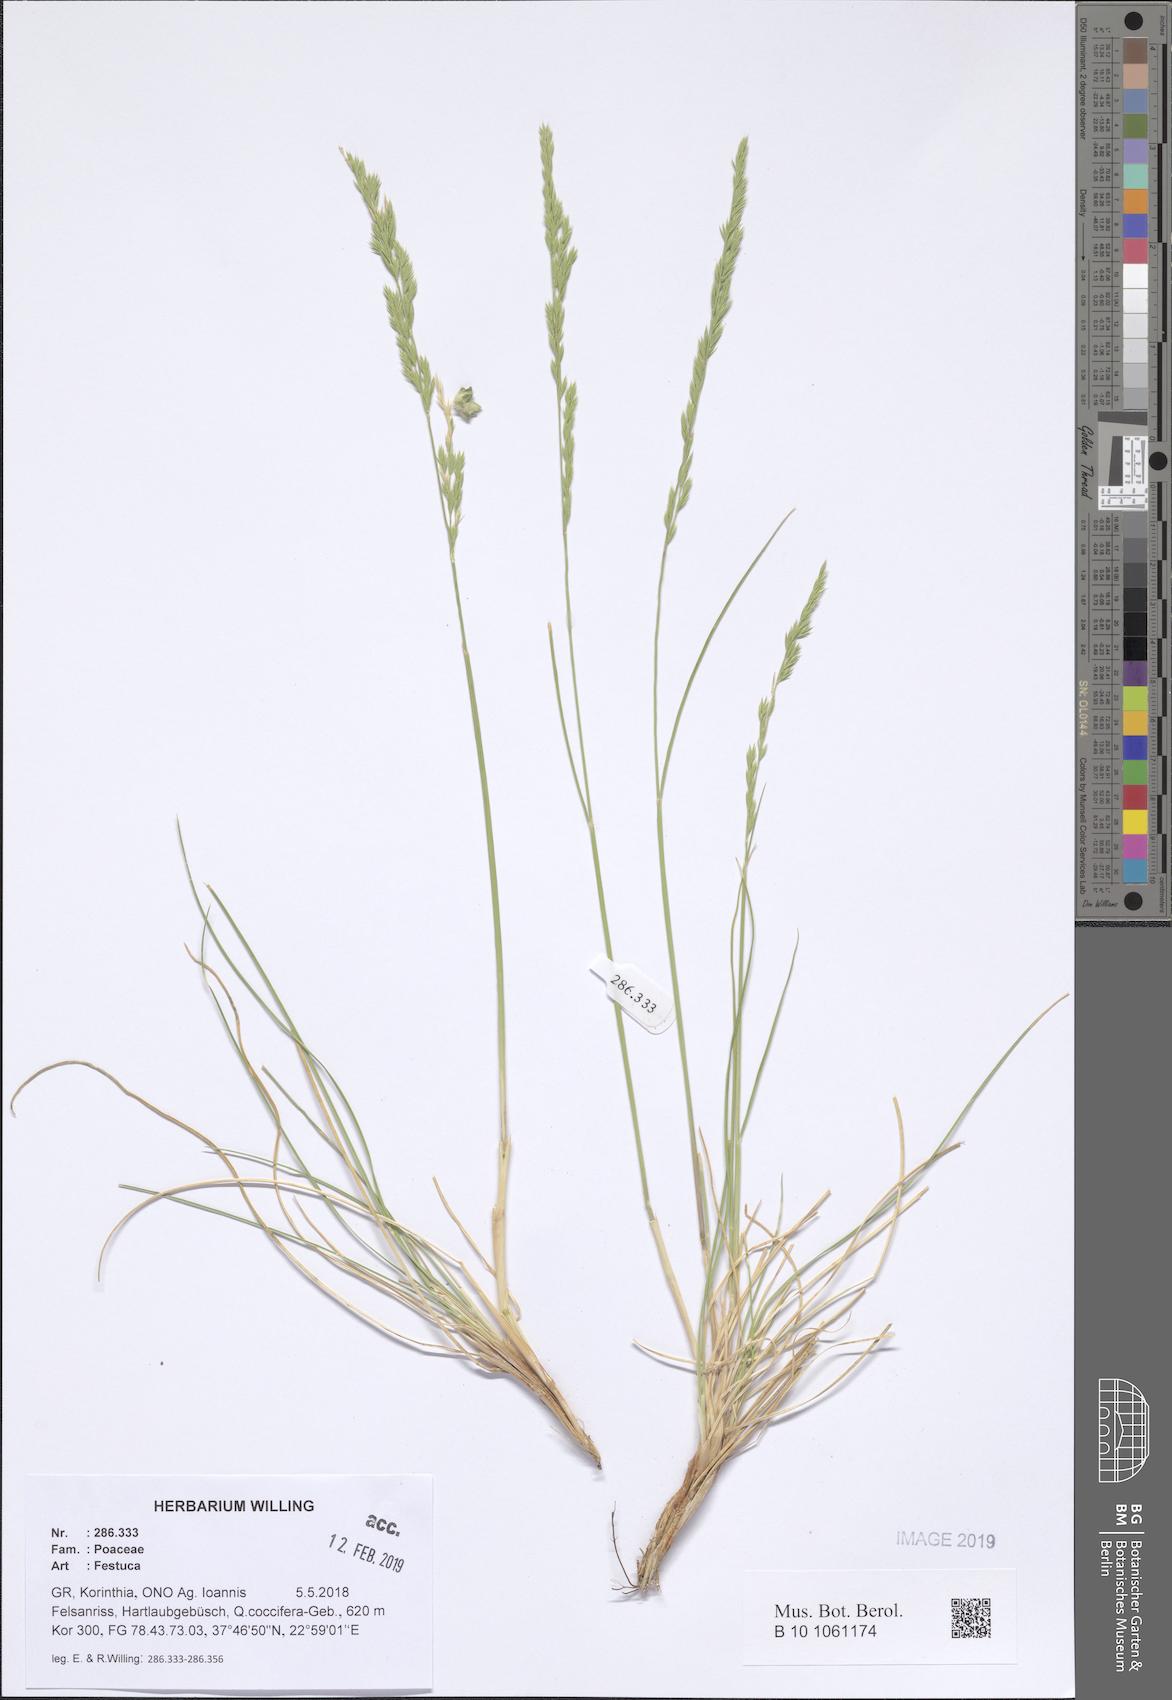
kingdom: Plantae
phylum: Tracheophyta
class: Liliopsida
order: Poales
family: Poaceae
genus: Festuca
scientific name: Festuca
